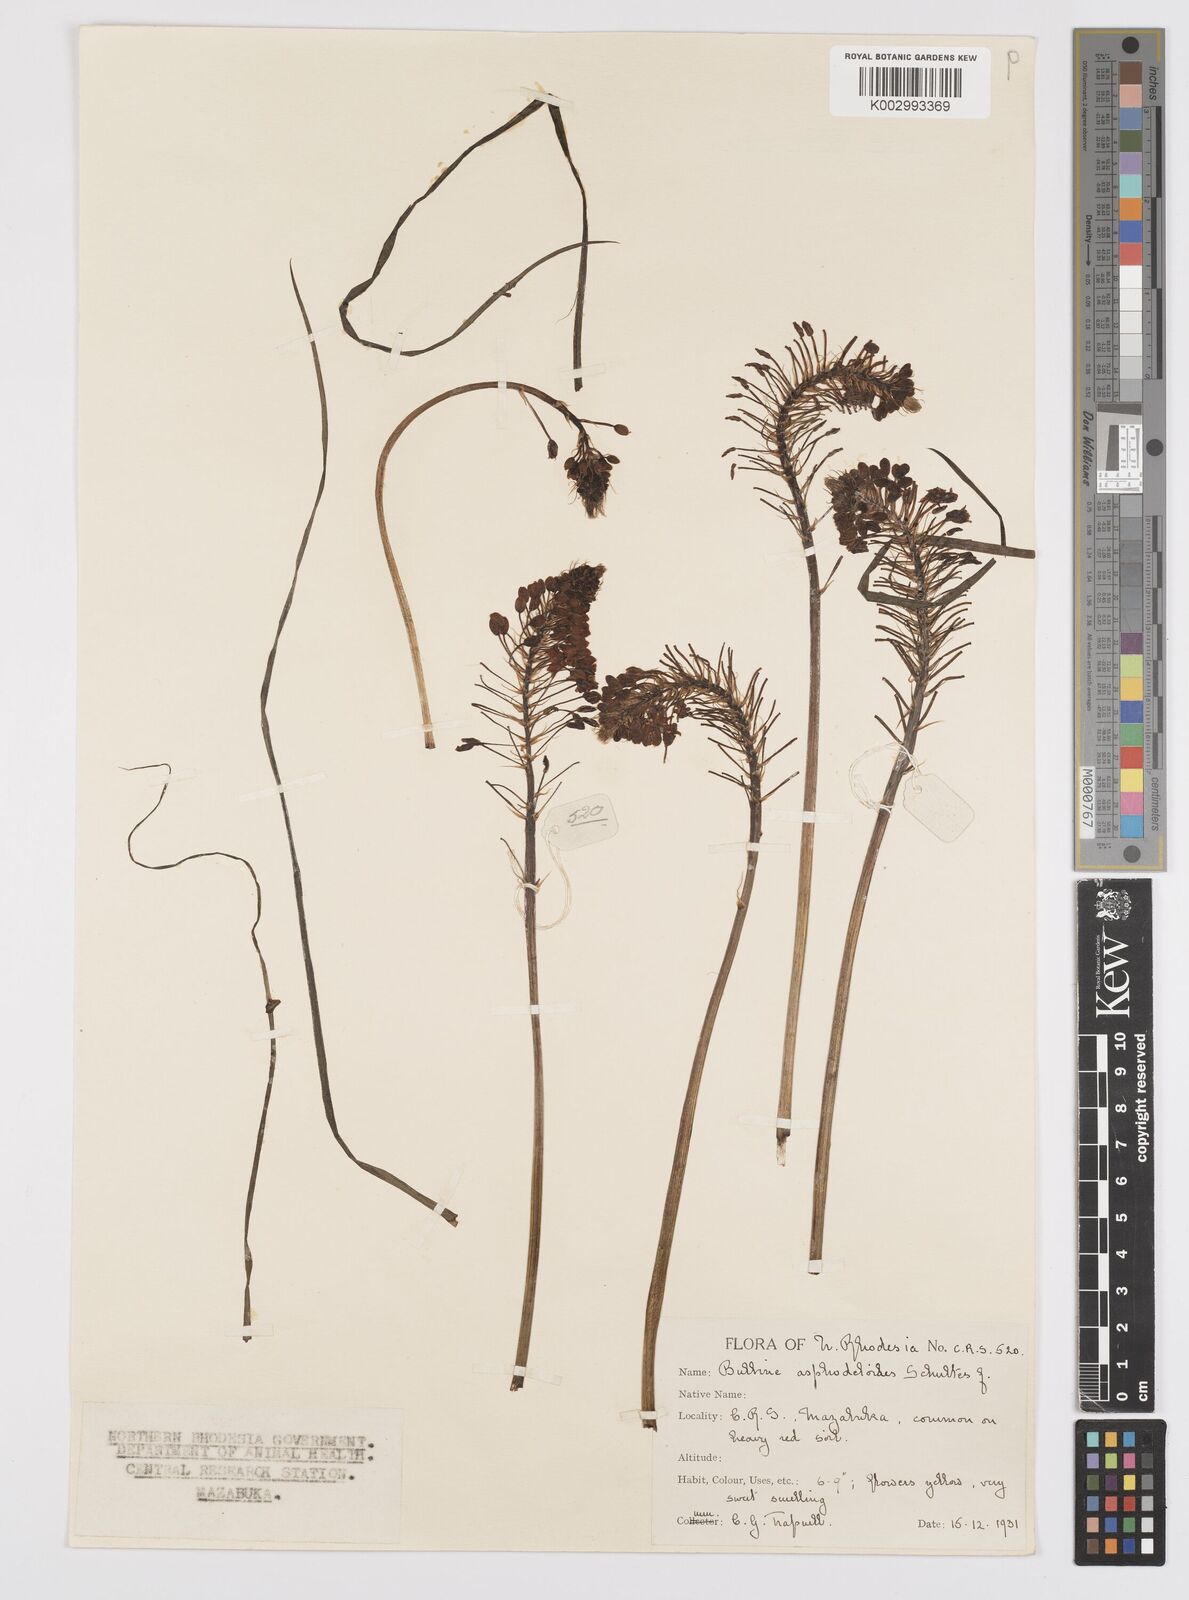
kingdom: Plantae
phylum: Tracheophyta
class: Liliopsida
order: Asparagales
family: Asphodelaceae
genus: Bulbine
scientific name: Bulbine abyssinica
